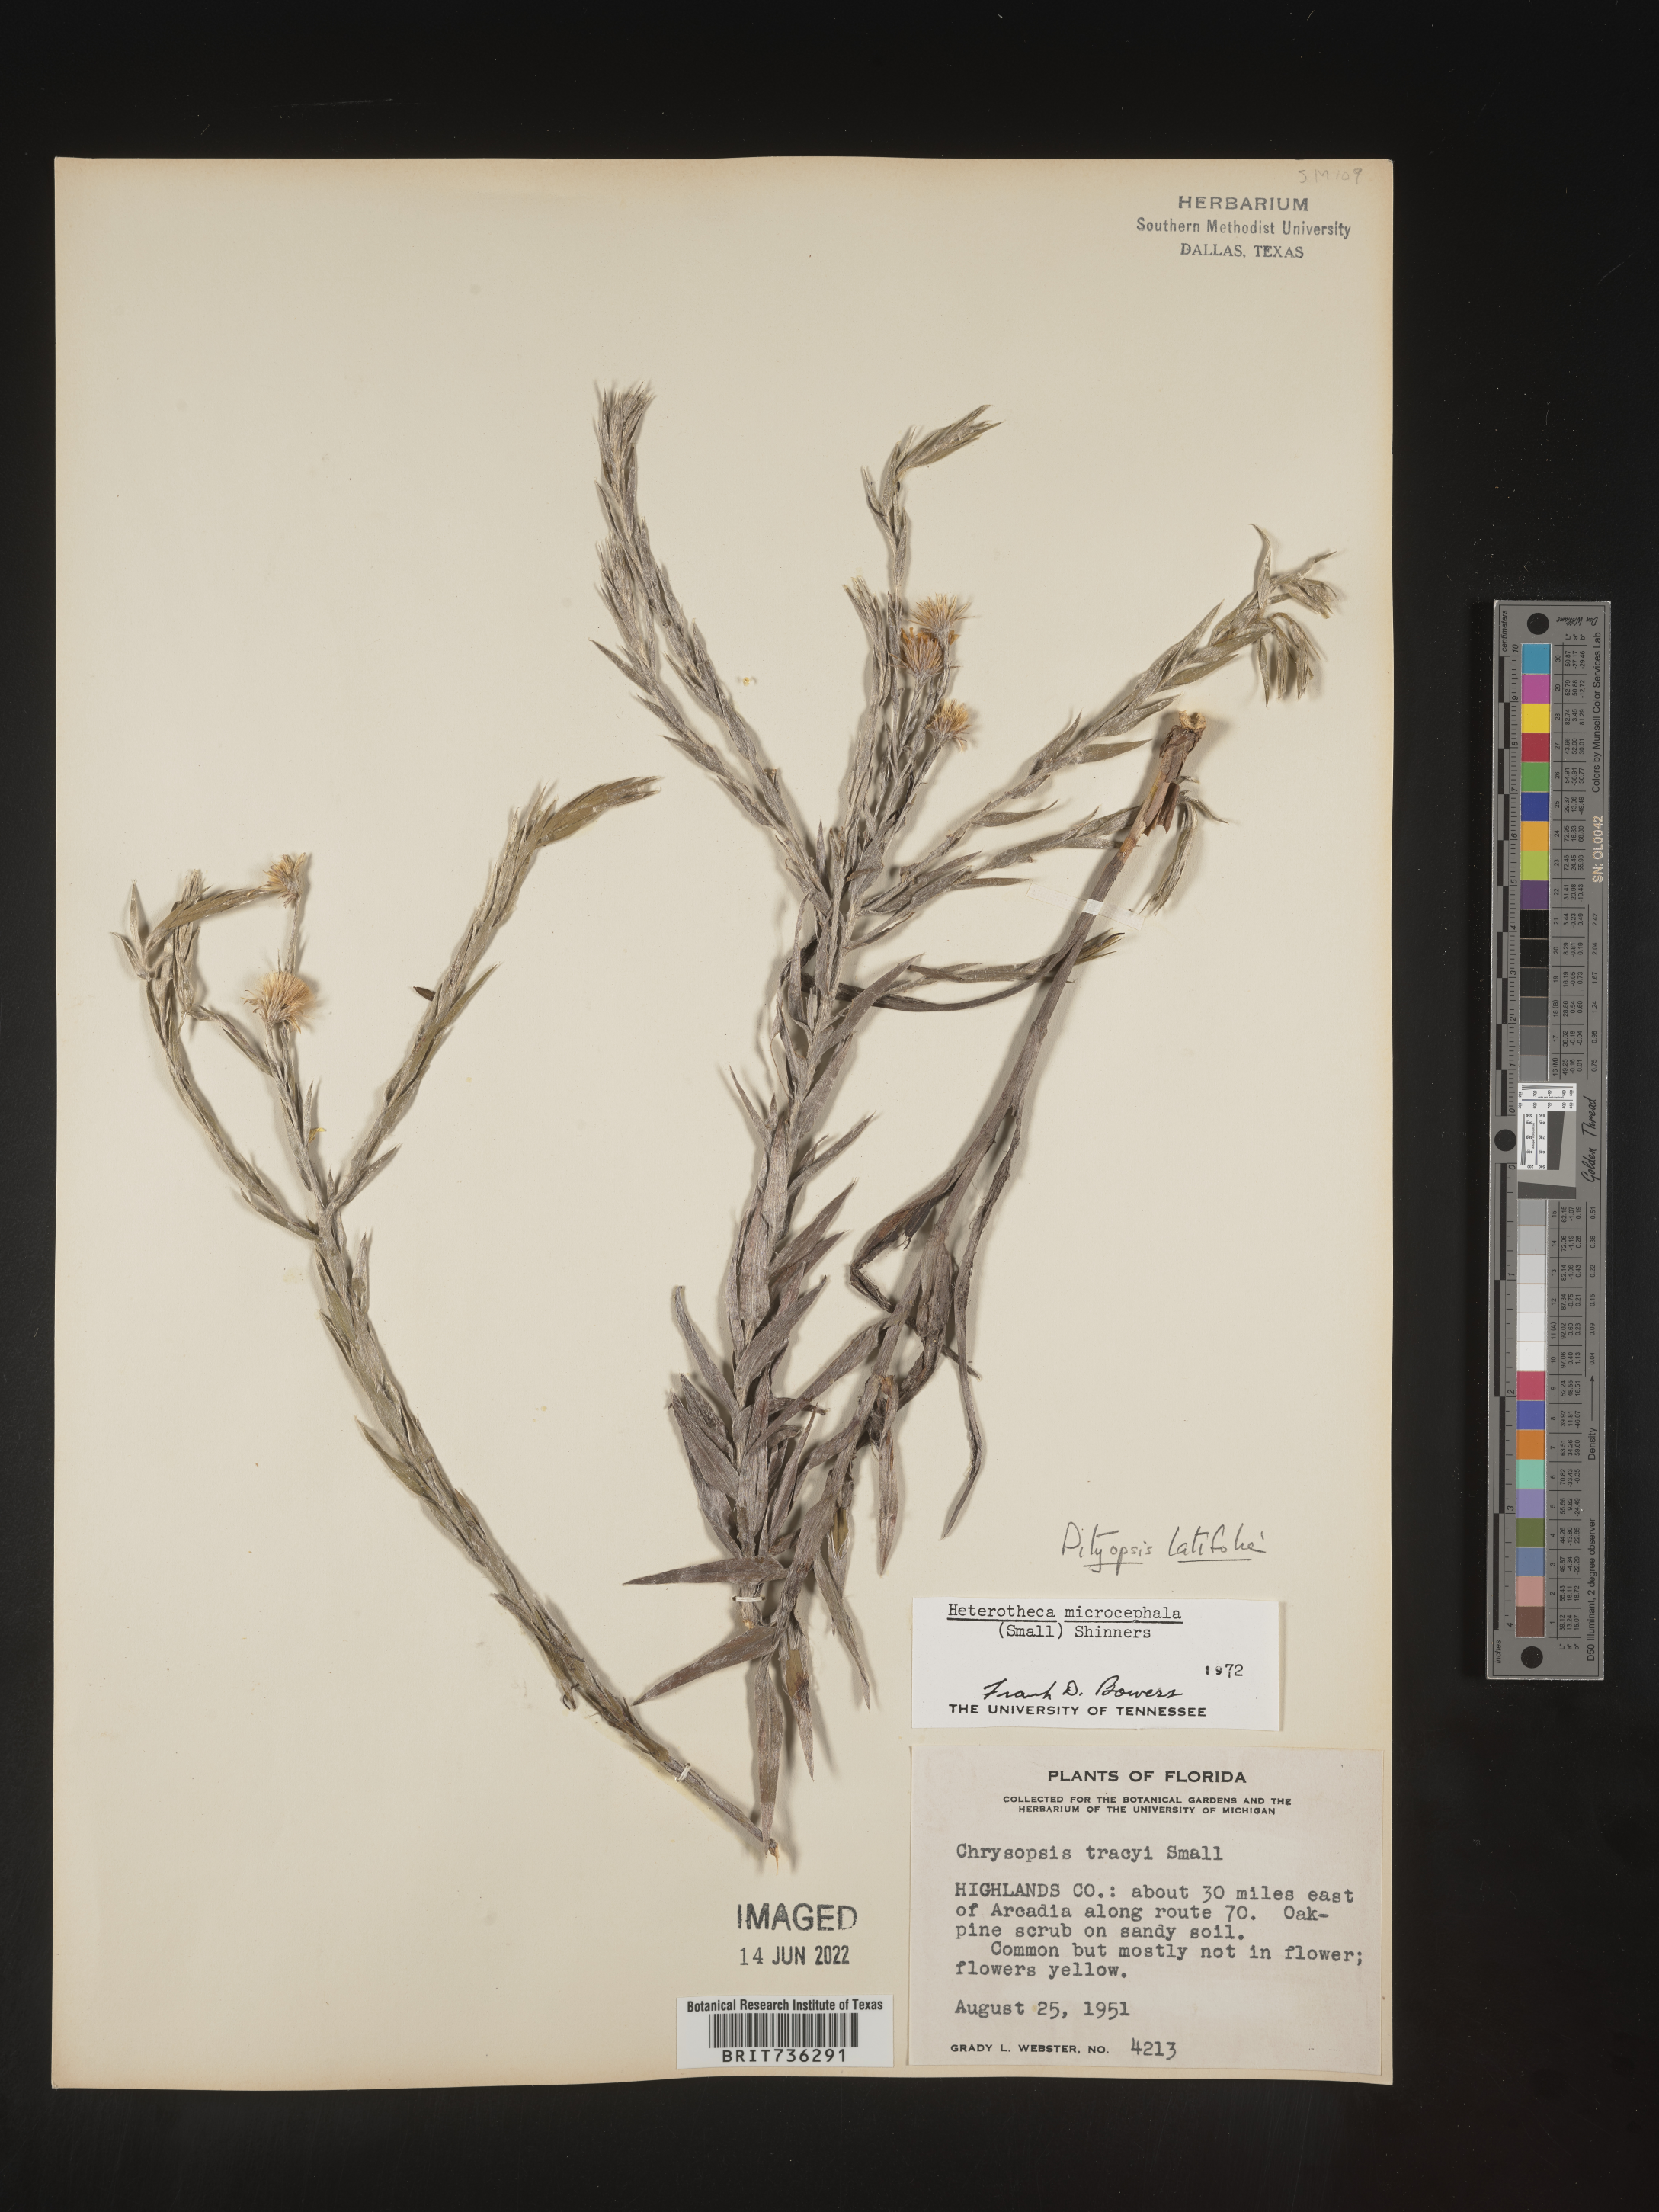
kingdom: Plantae
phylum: Tracheophyta
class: Magnoliopsida
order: Asterales
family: Asteraceae
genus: Pityopsis
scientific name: Pityopsis latifolia
